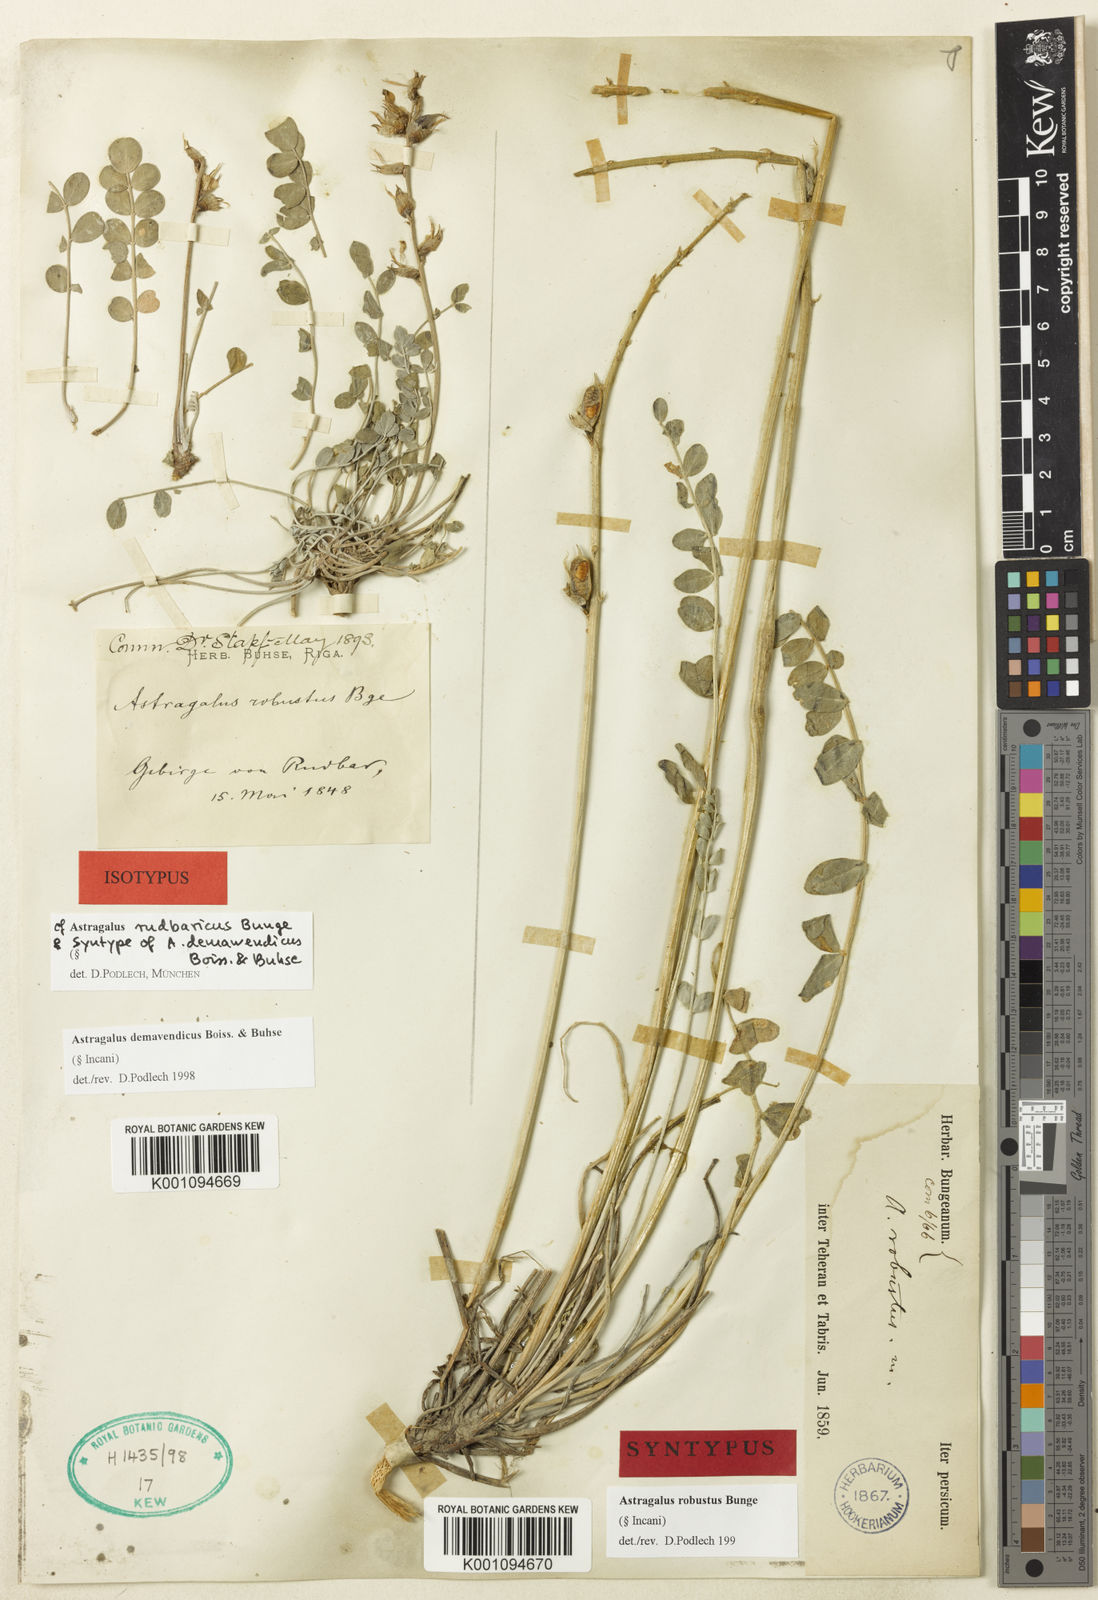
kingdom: Plantae
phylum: Tracheophyta
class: Magnoliopsida
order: Fabales
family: Fabaceae
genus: Astragalus
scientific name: Astragalus
